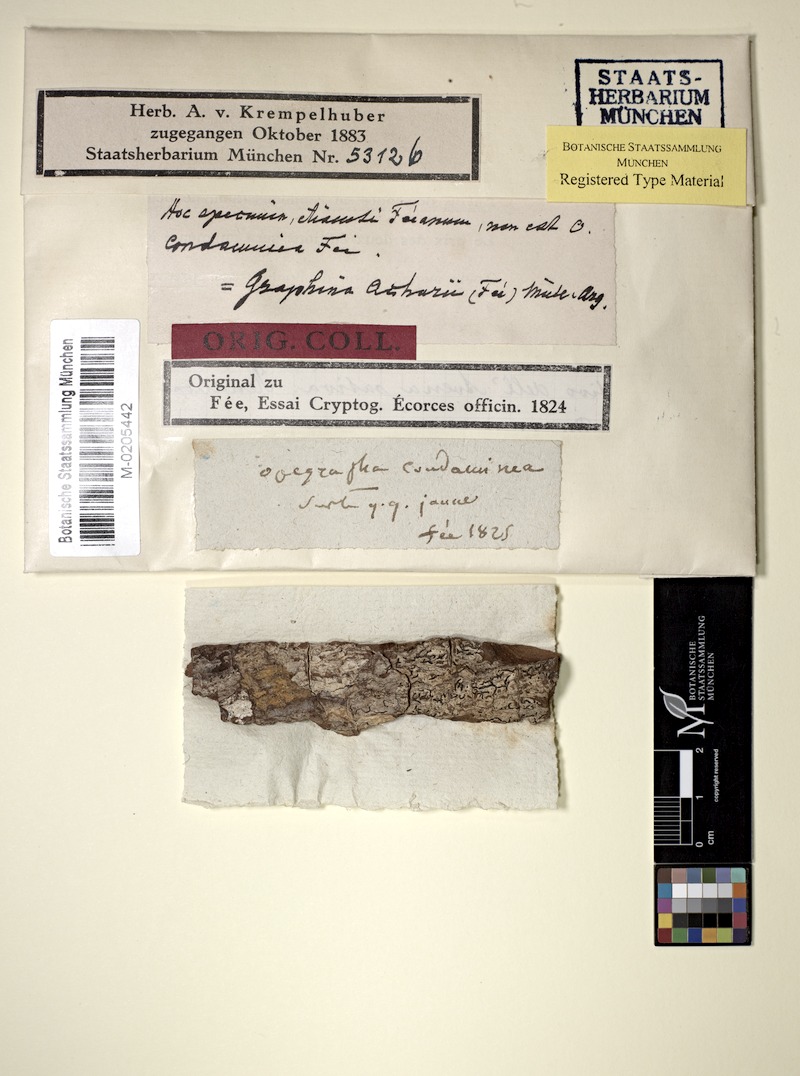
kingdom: Fungi
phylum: Ascomycota
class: Lecanoromycetes
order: Ostropales
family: Graphidaceae
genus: Graphis
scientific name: Graphis
